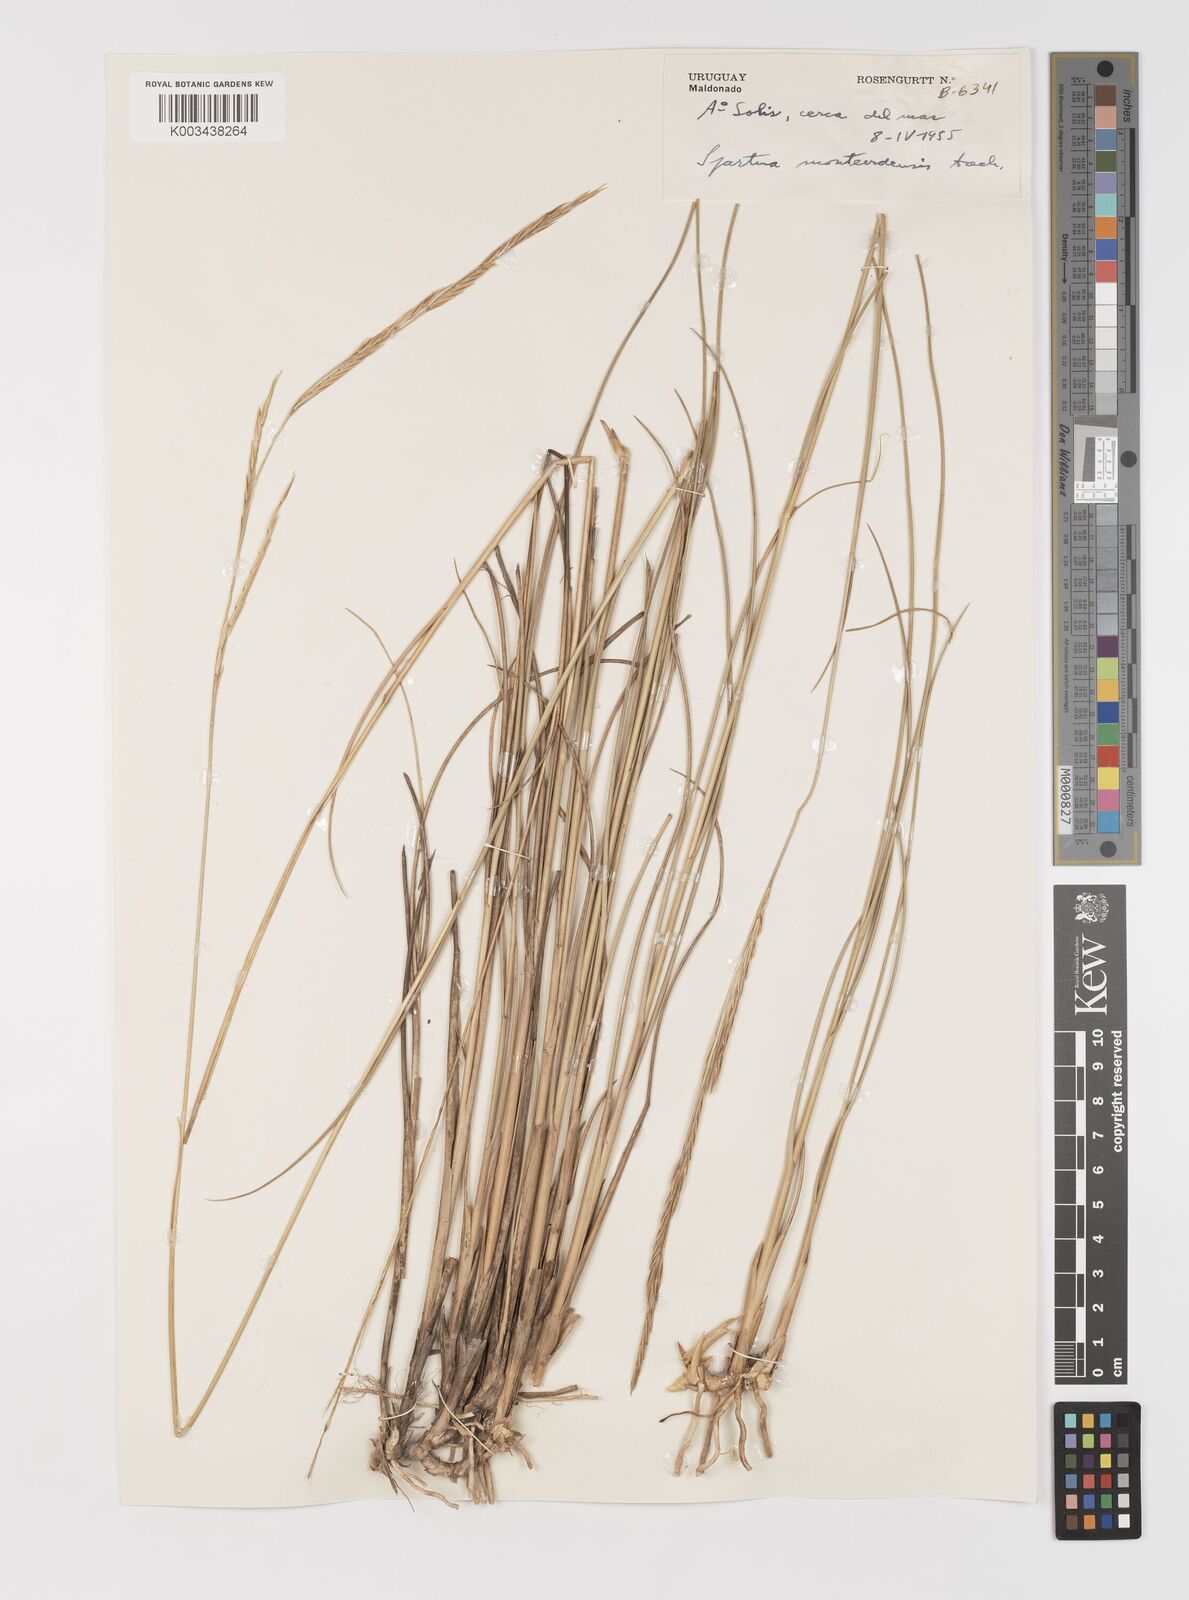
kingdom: Plantae
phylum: Tracheophyta
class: Liliopsida
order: Poales
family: Poaceae
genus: Sporobolus
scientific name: Sporobolus montevidensis
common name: Montevideo dropseed
